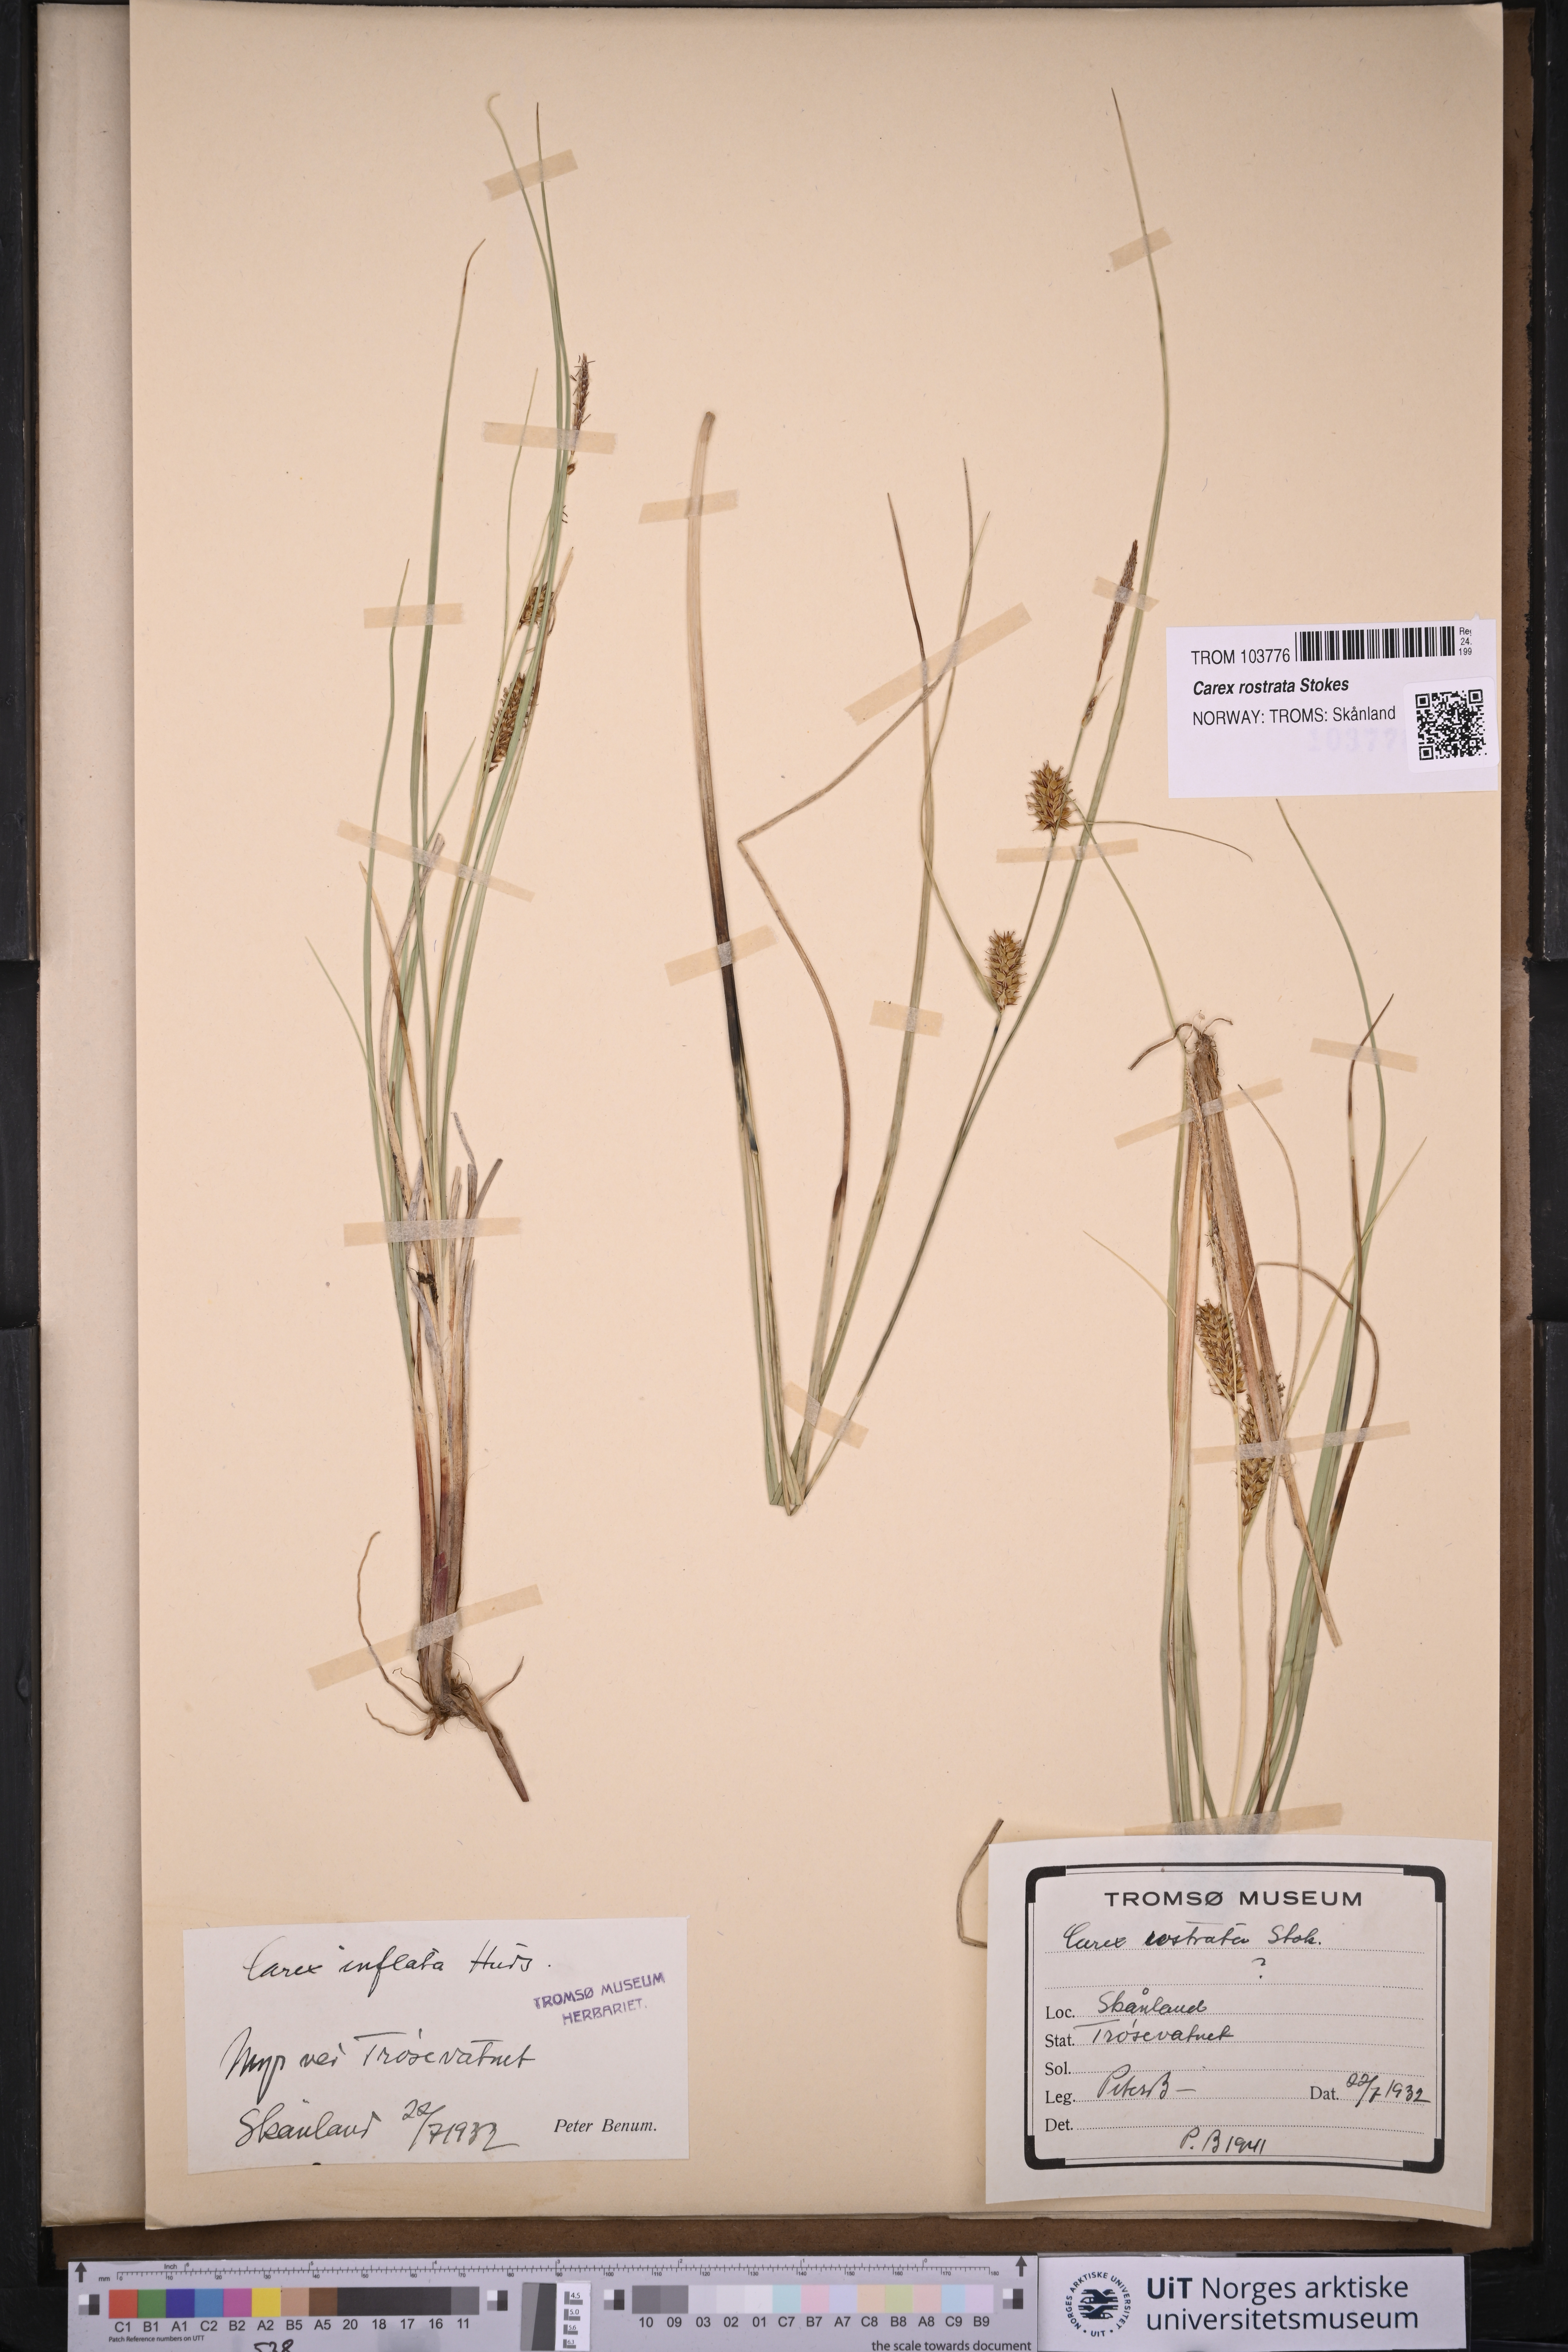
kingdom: Plantae
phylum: Tracheophyta
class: Liliopsida
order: Poales
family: Cyperaceae
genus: Carex
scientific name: Carex rostrata
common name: Bottle sedge
